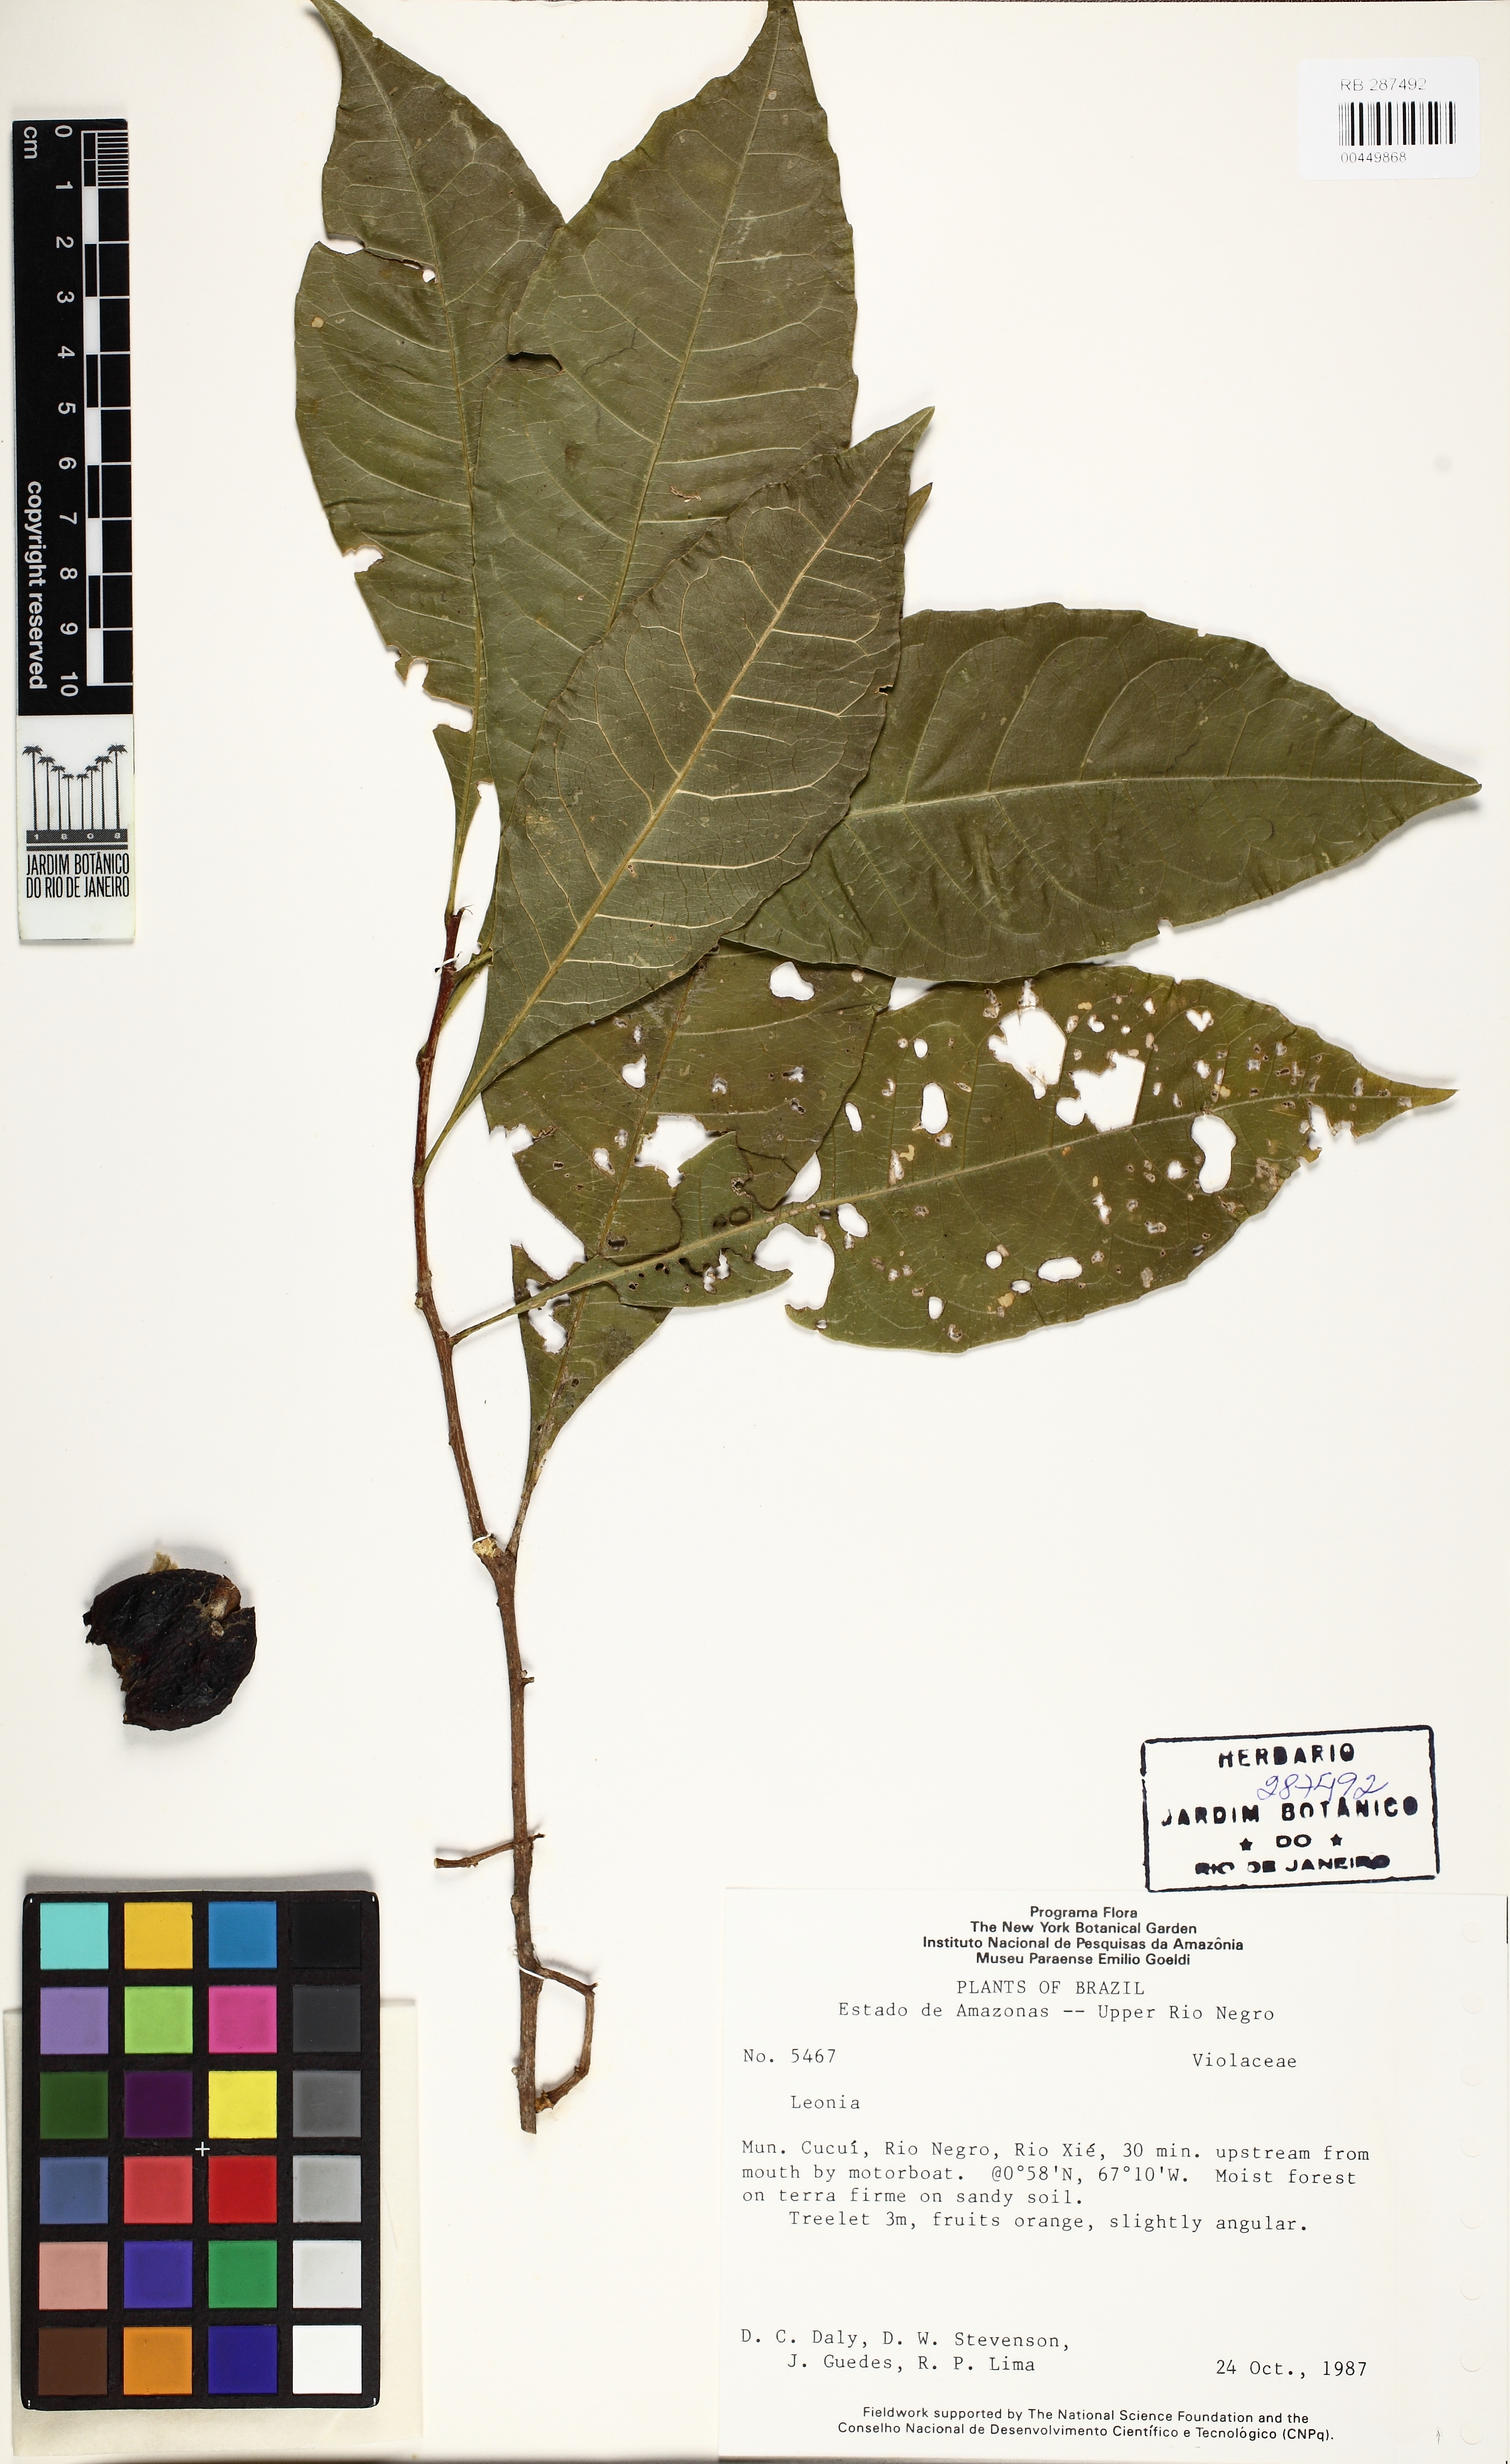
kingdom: Plantae
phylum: Tracheophyta
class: Magnoliopsida
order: Malpighiales
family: Violaceae
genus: Leonia
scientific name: Leonia
